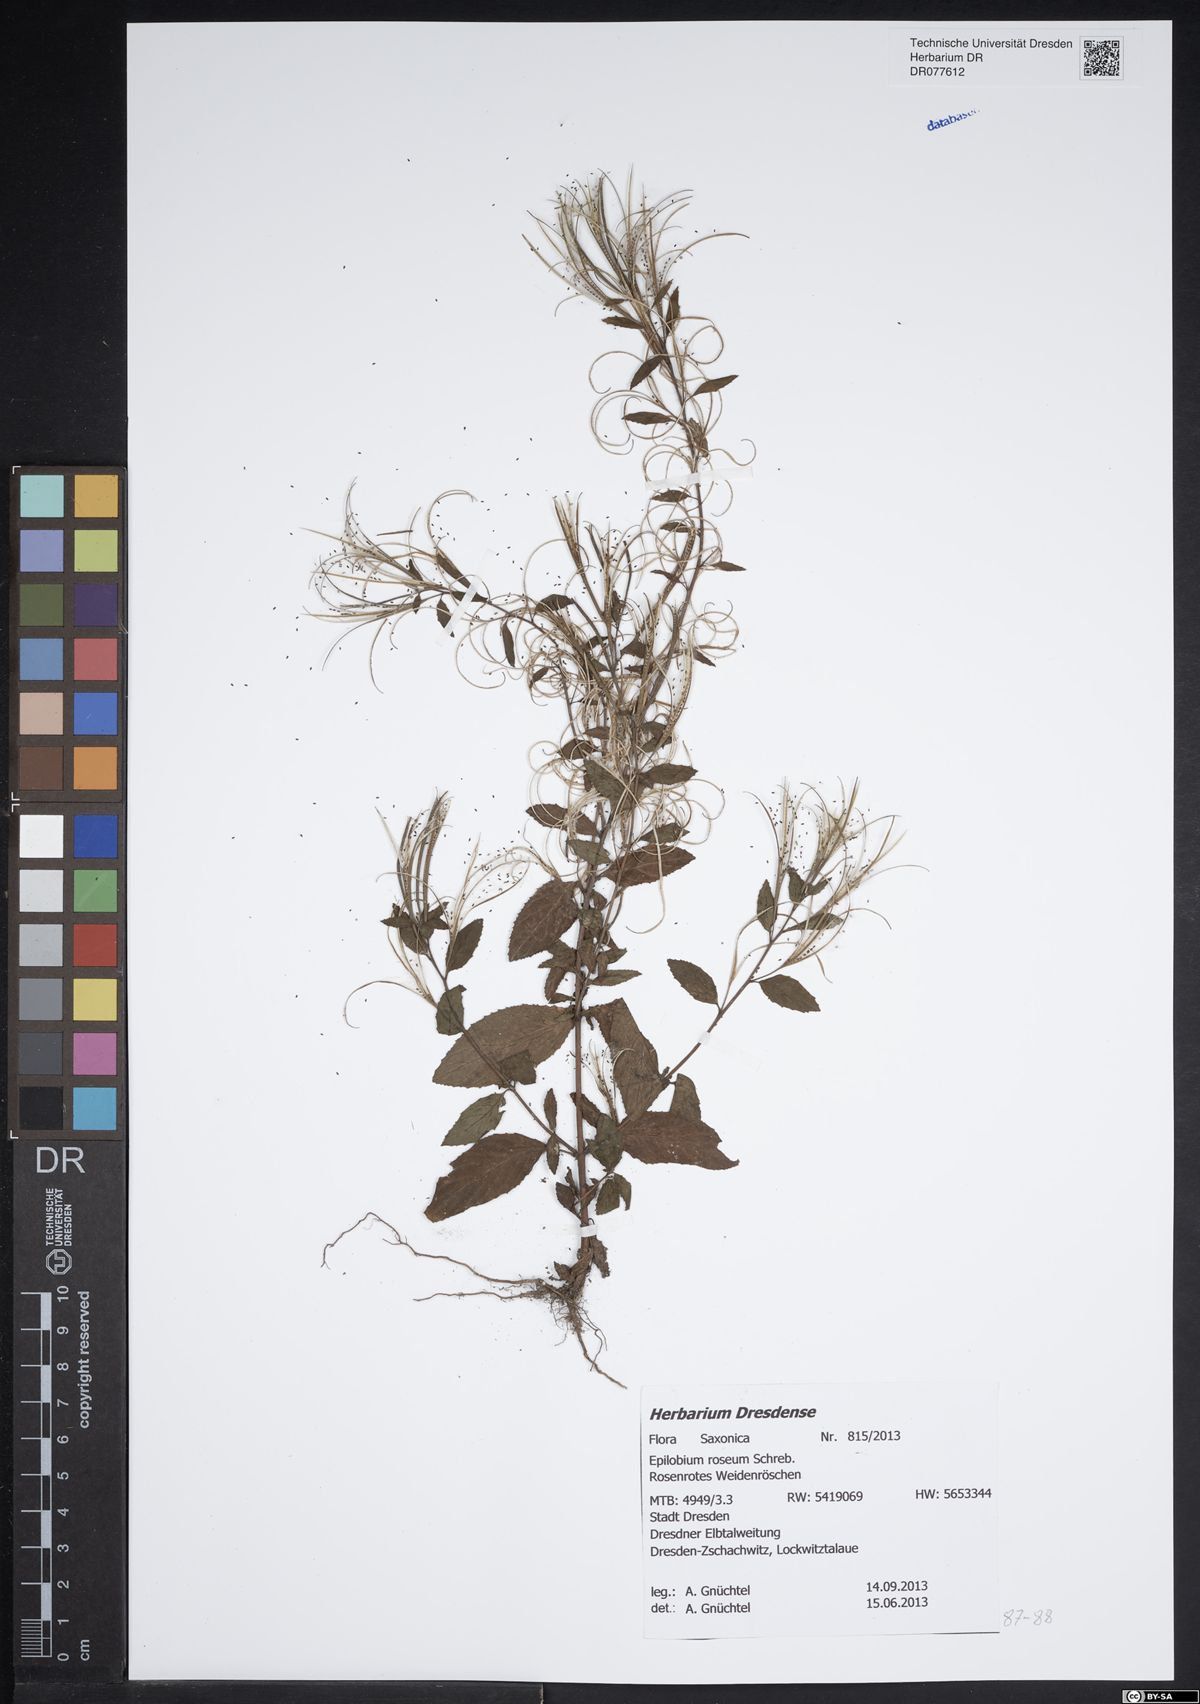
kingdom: Plantae
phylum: Tracheophyta
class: Magnoliopsida
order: Myrtales
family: Onagraceae
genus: Epilobium
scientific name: Epilobium roseum
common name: Pale willowherb
